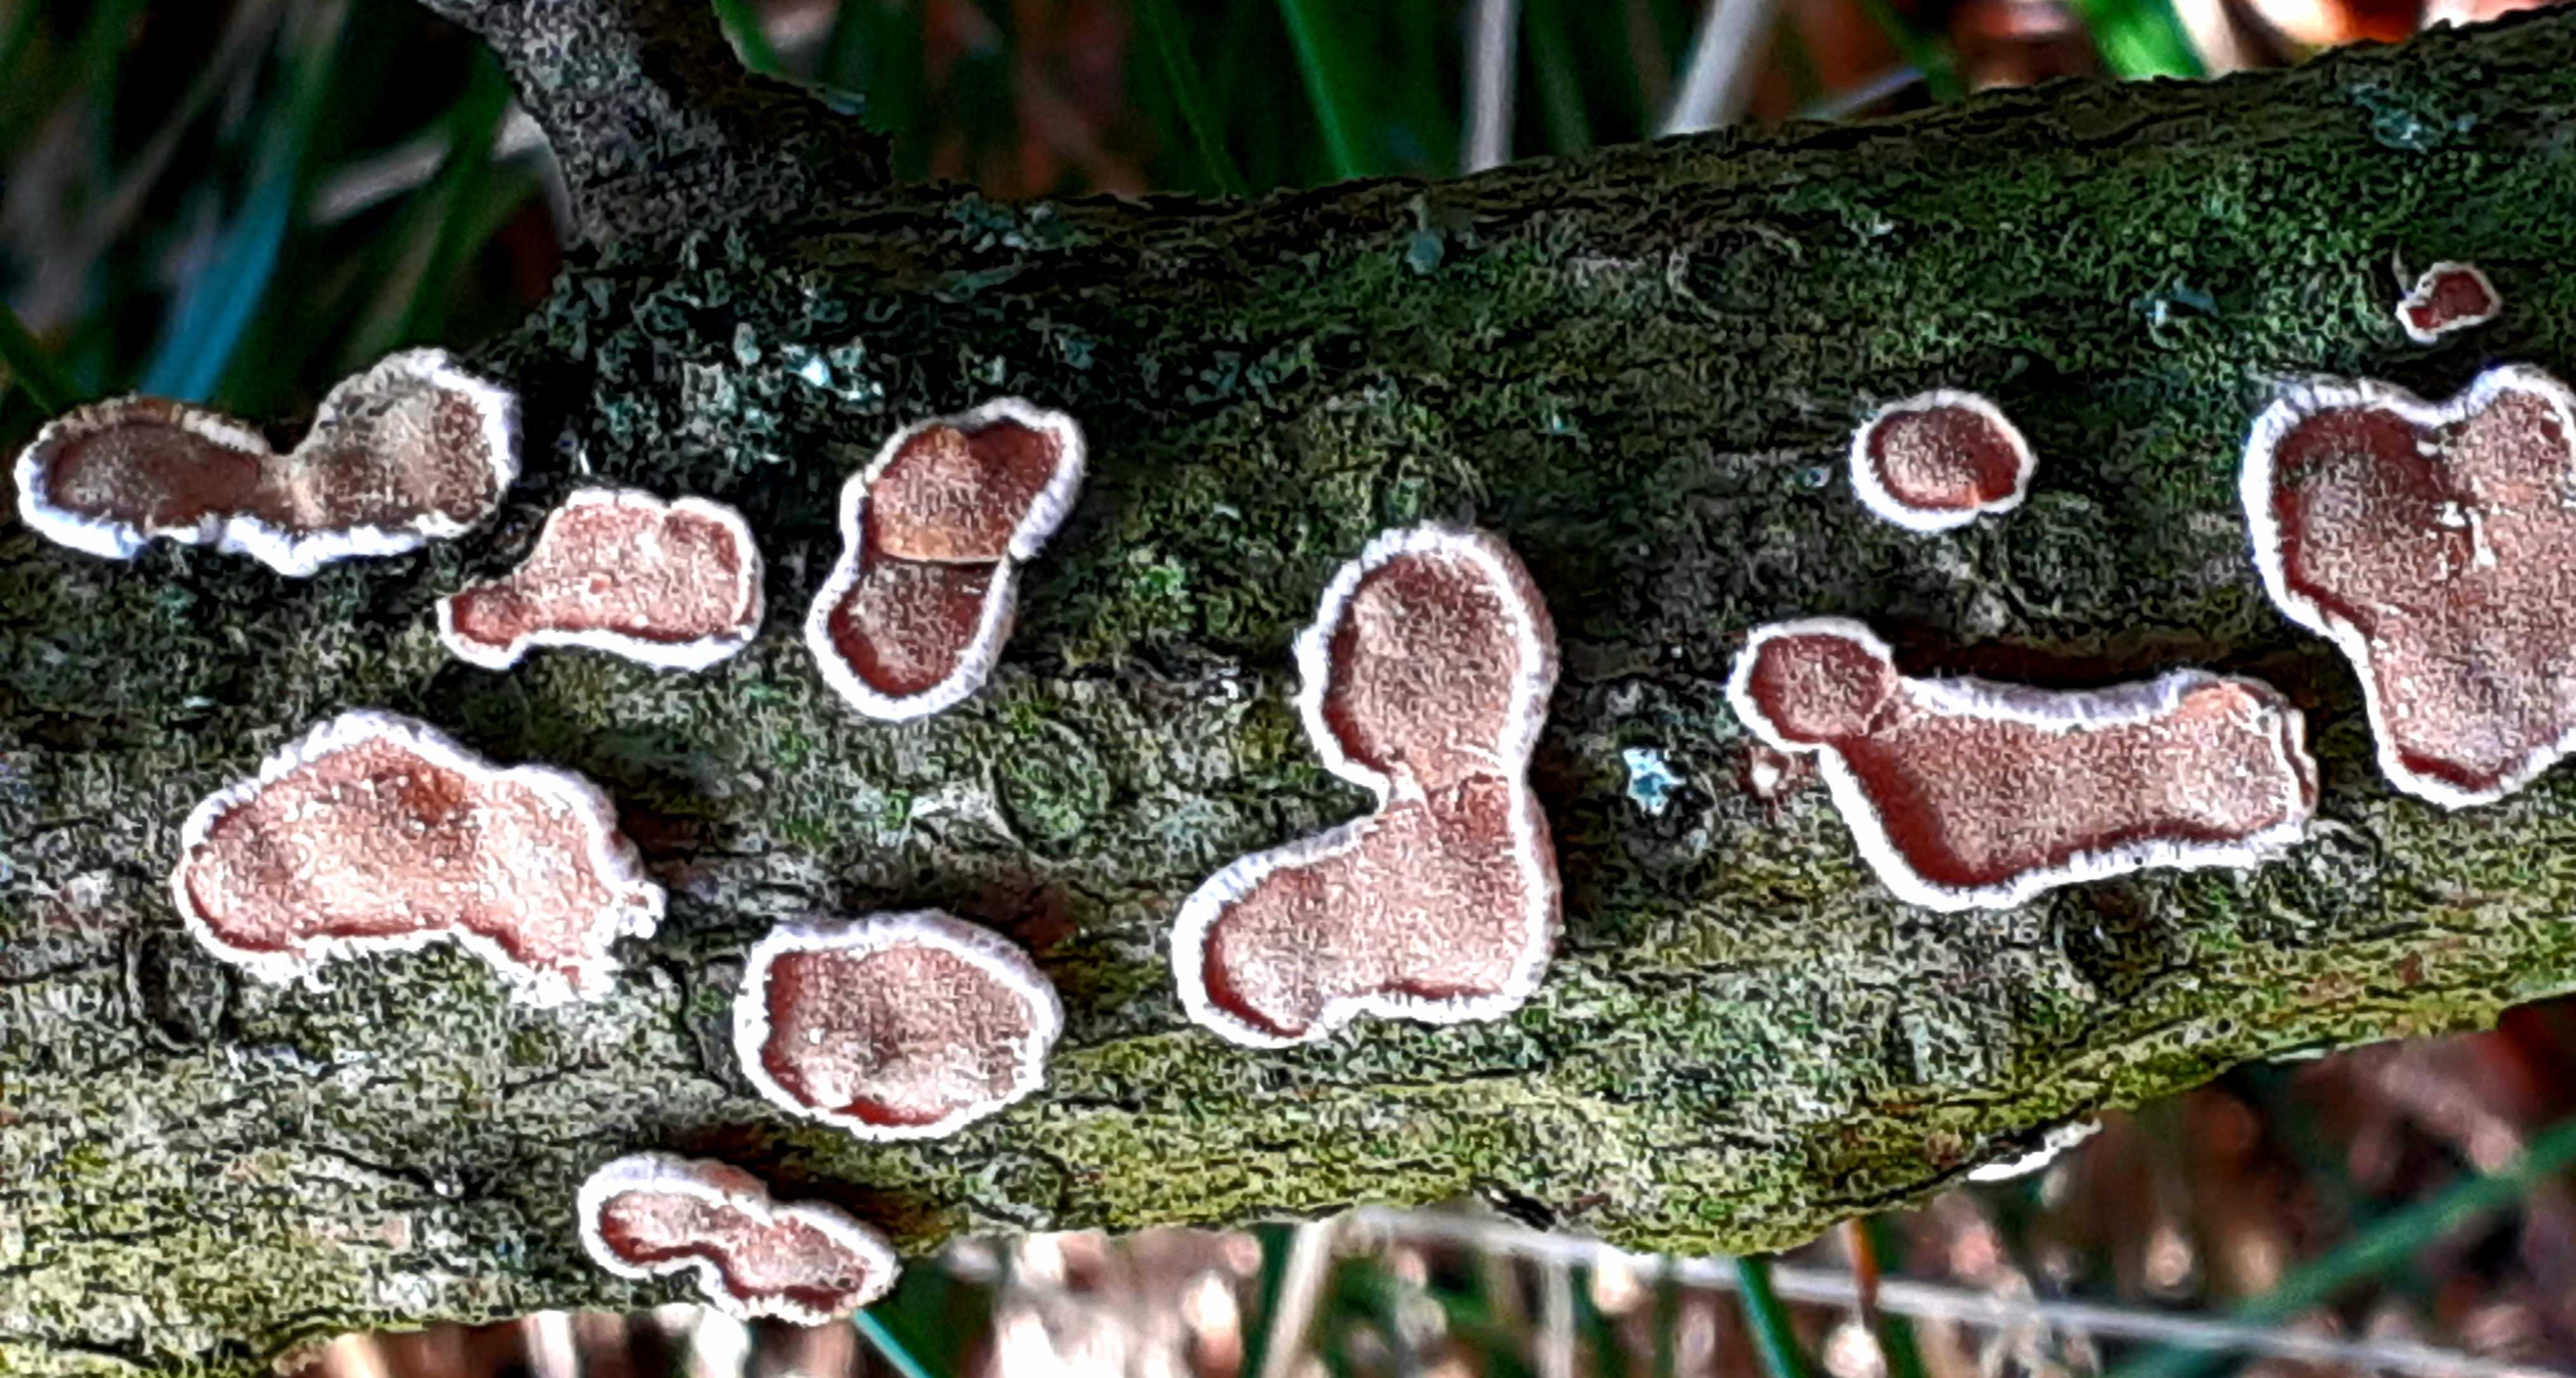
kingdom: Fungi
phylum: Basidiomycota
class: Agaricomycetes
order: Russulales
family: Stereaceae
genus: Aleurodiscus
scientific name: Aleurodiscus amorphus
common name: orange skiveskorpe
